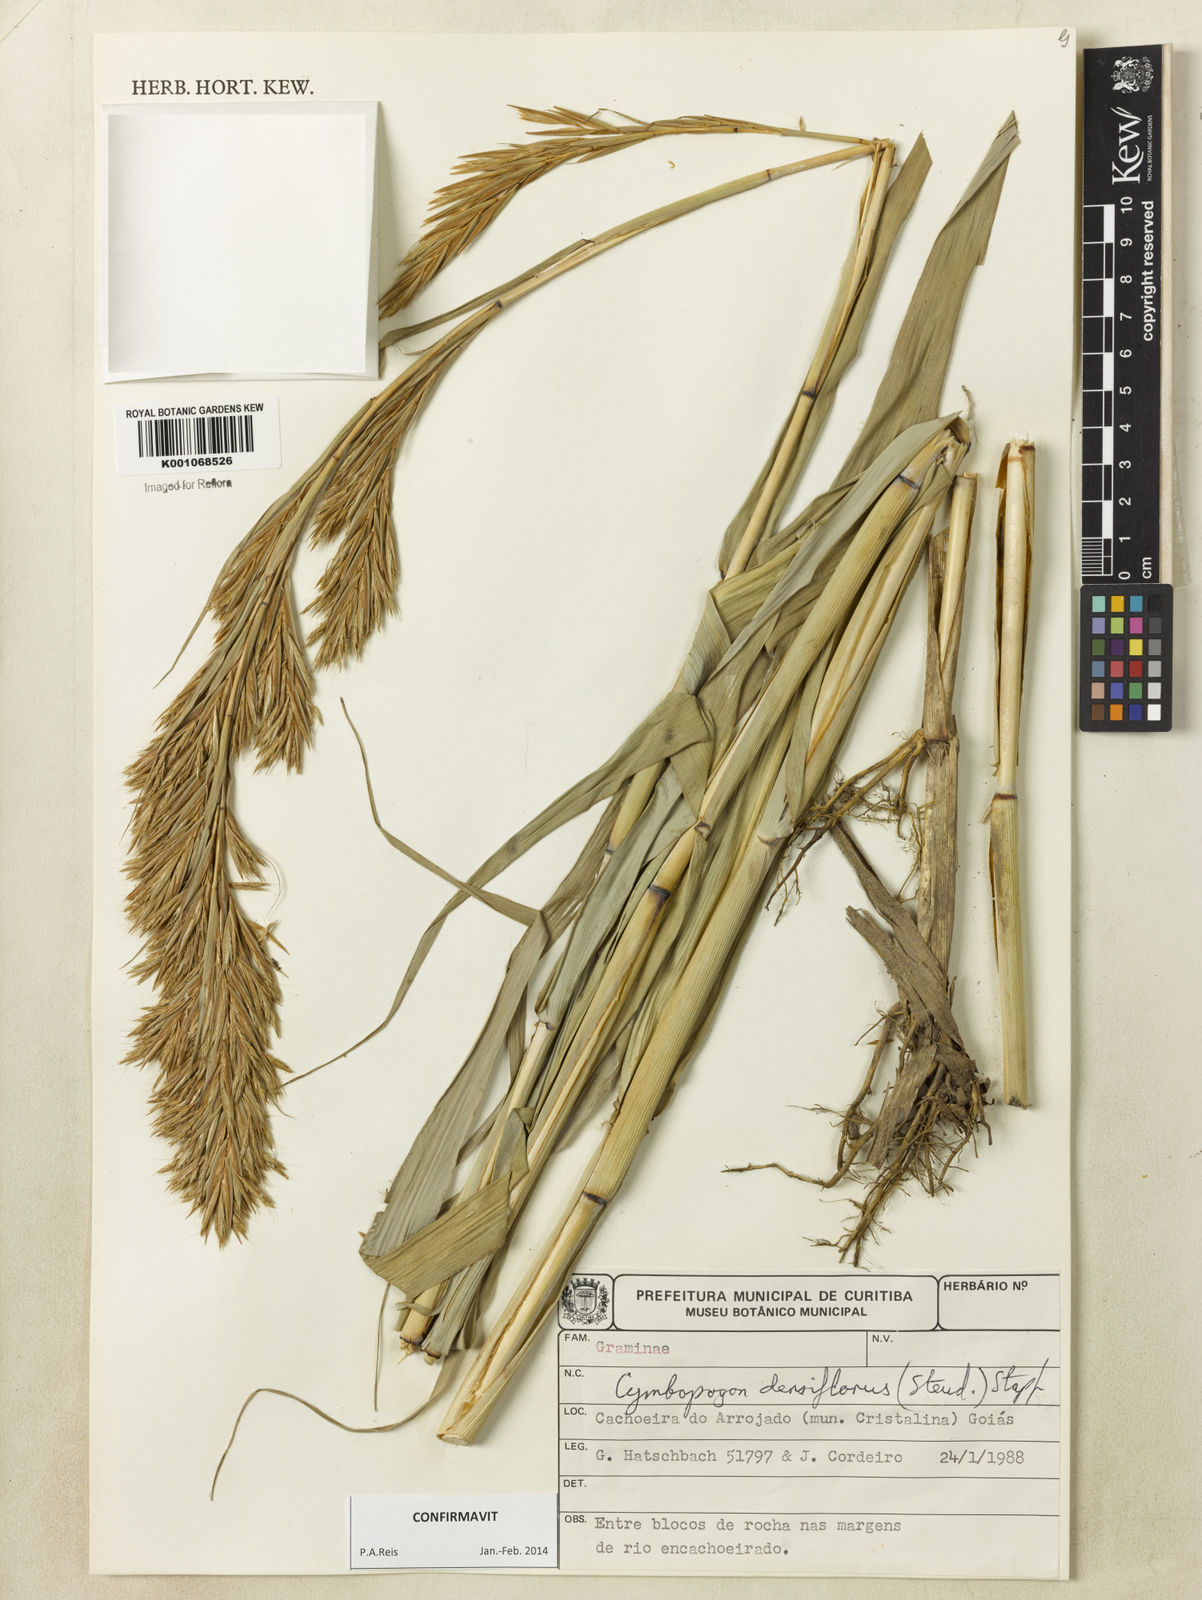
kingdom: Plantae
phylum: Tracheophyta
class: Liliopsida
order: Poales
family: Poaceae
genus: Cymbopogon
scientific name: Cymbopogon densiflorus
